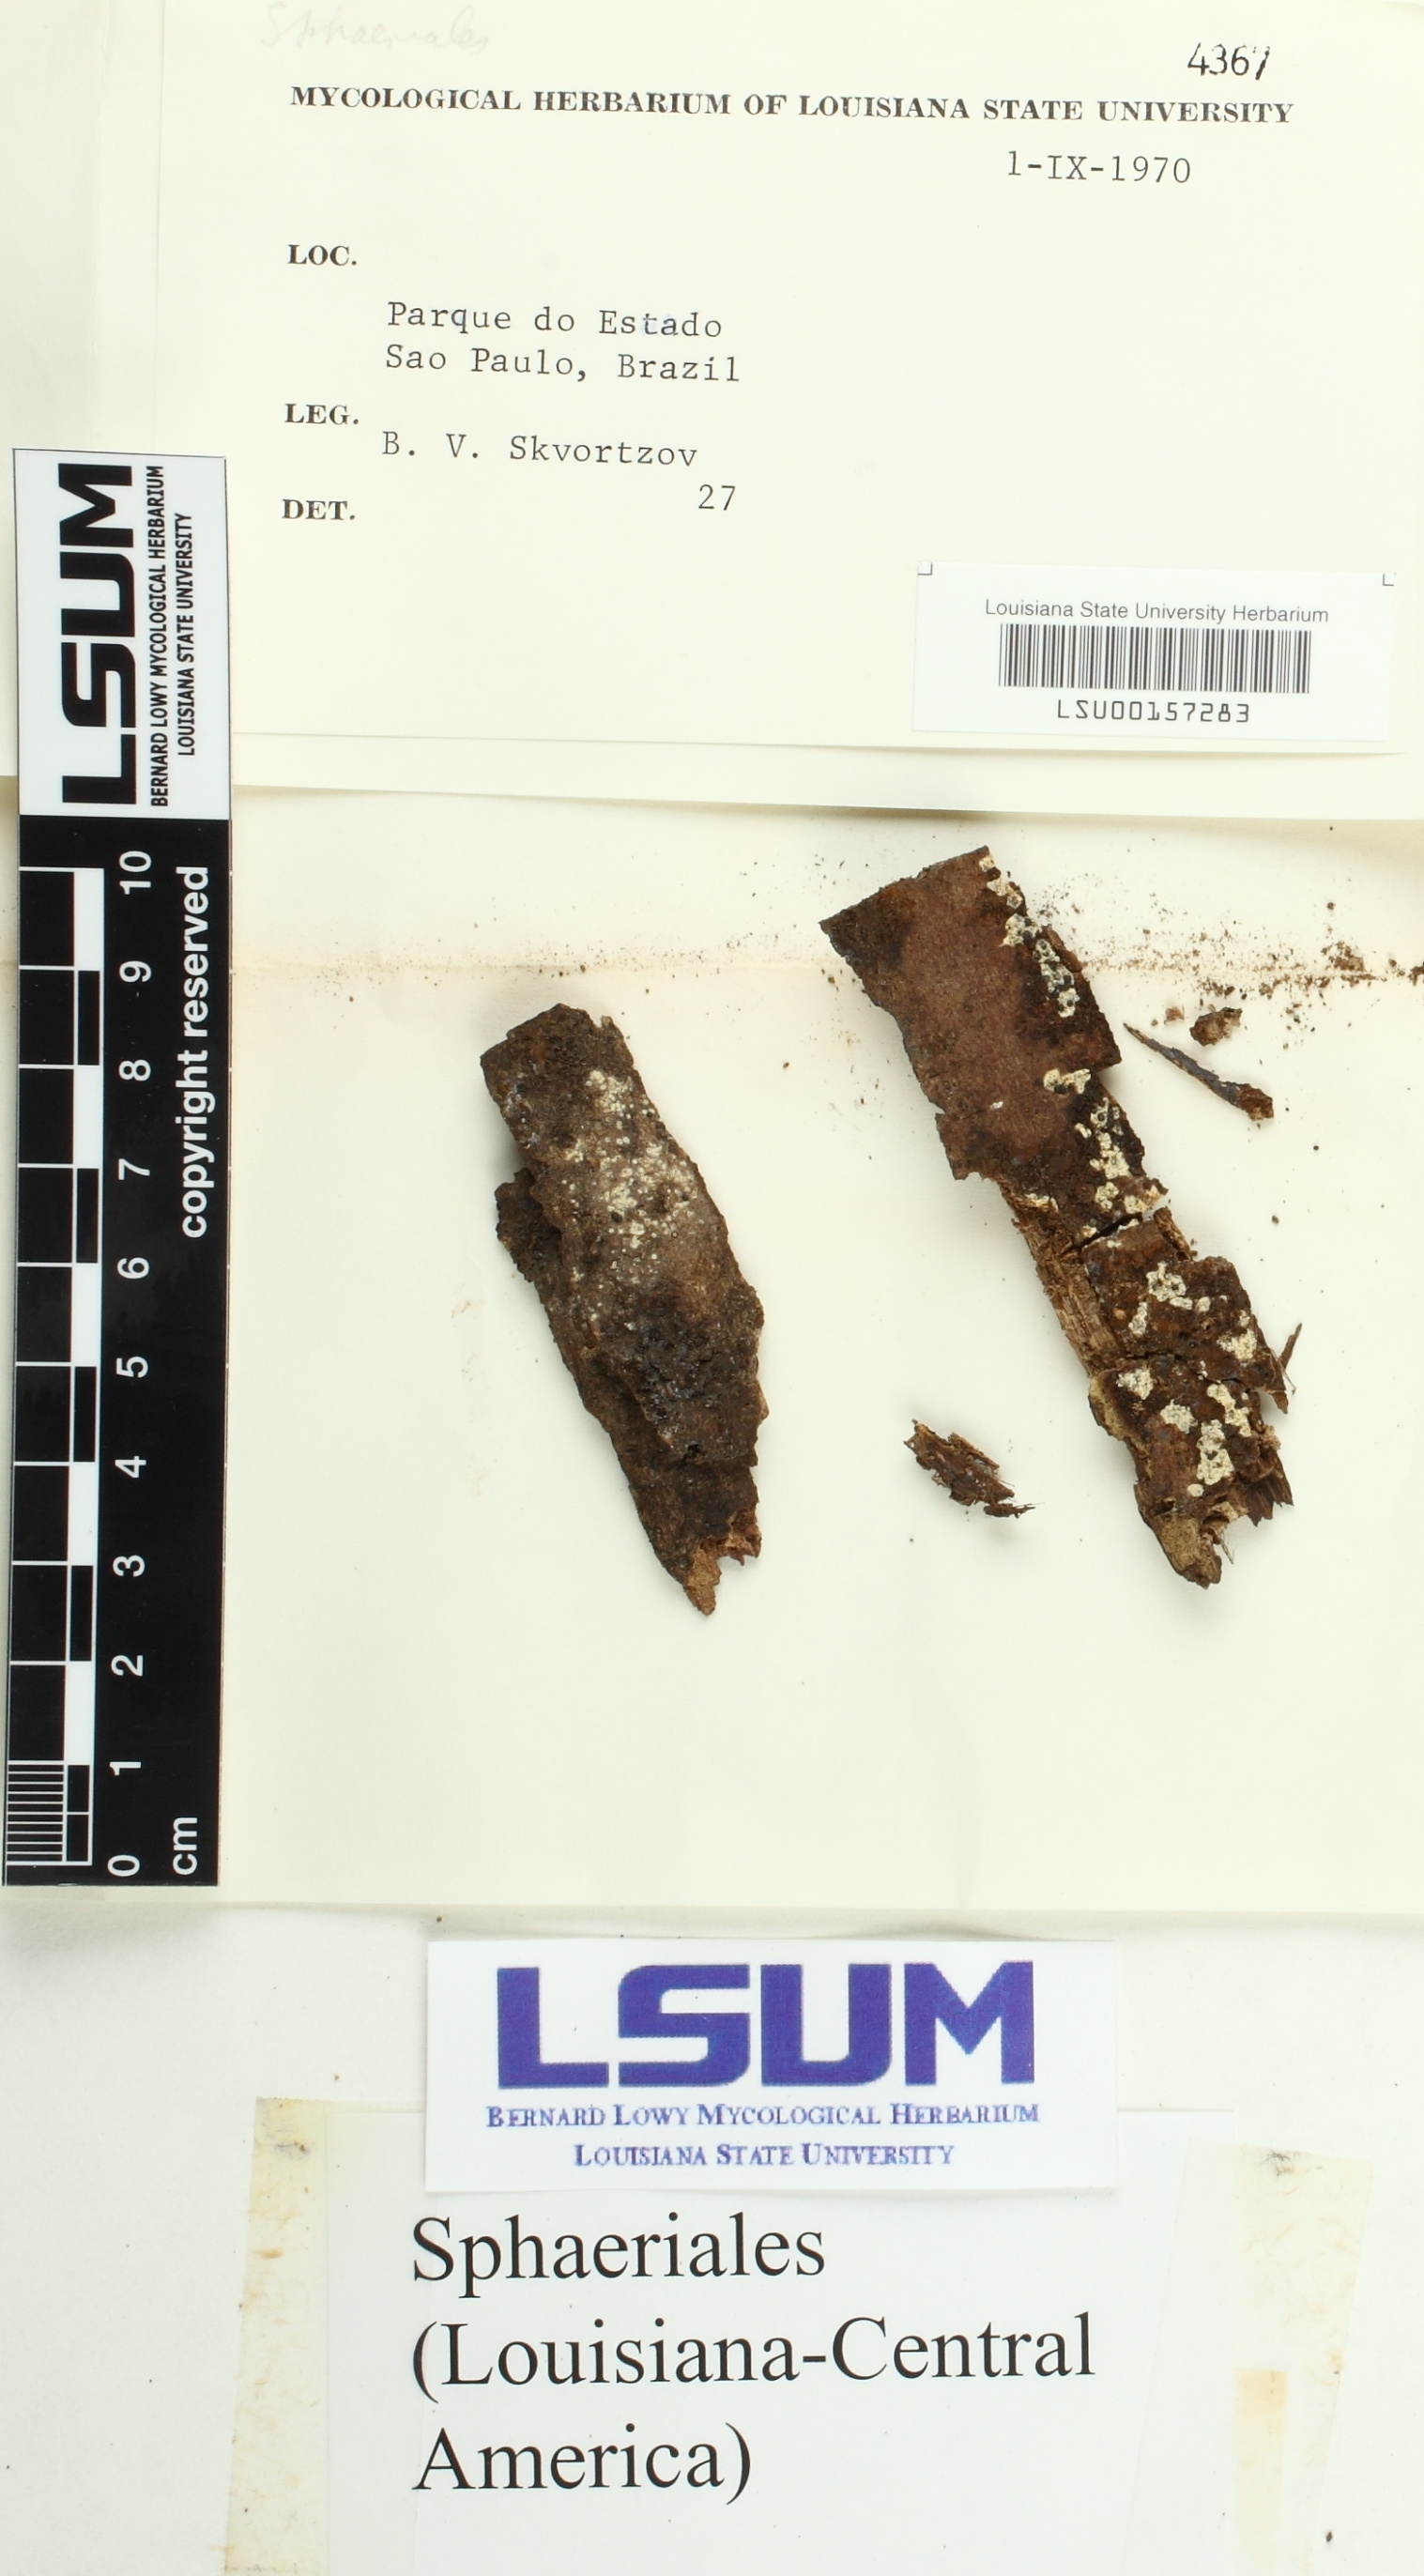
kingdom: Fungi
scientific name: Fungi
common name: Fungi
